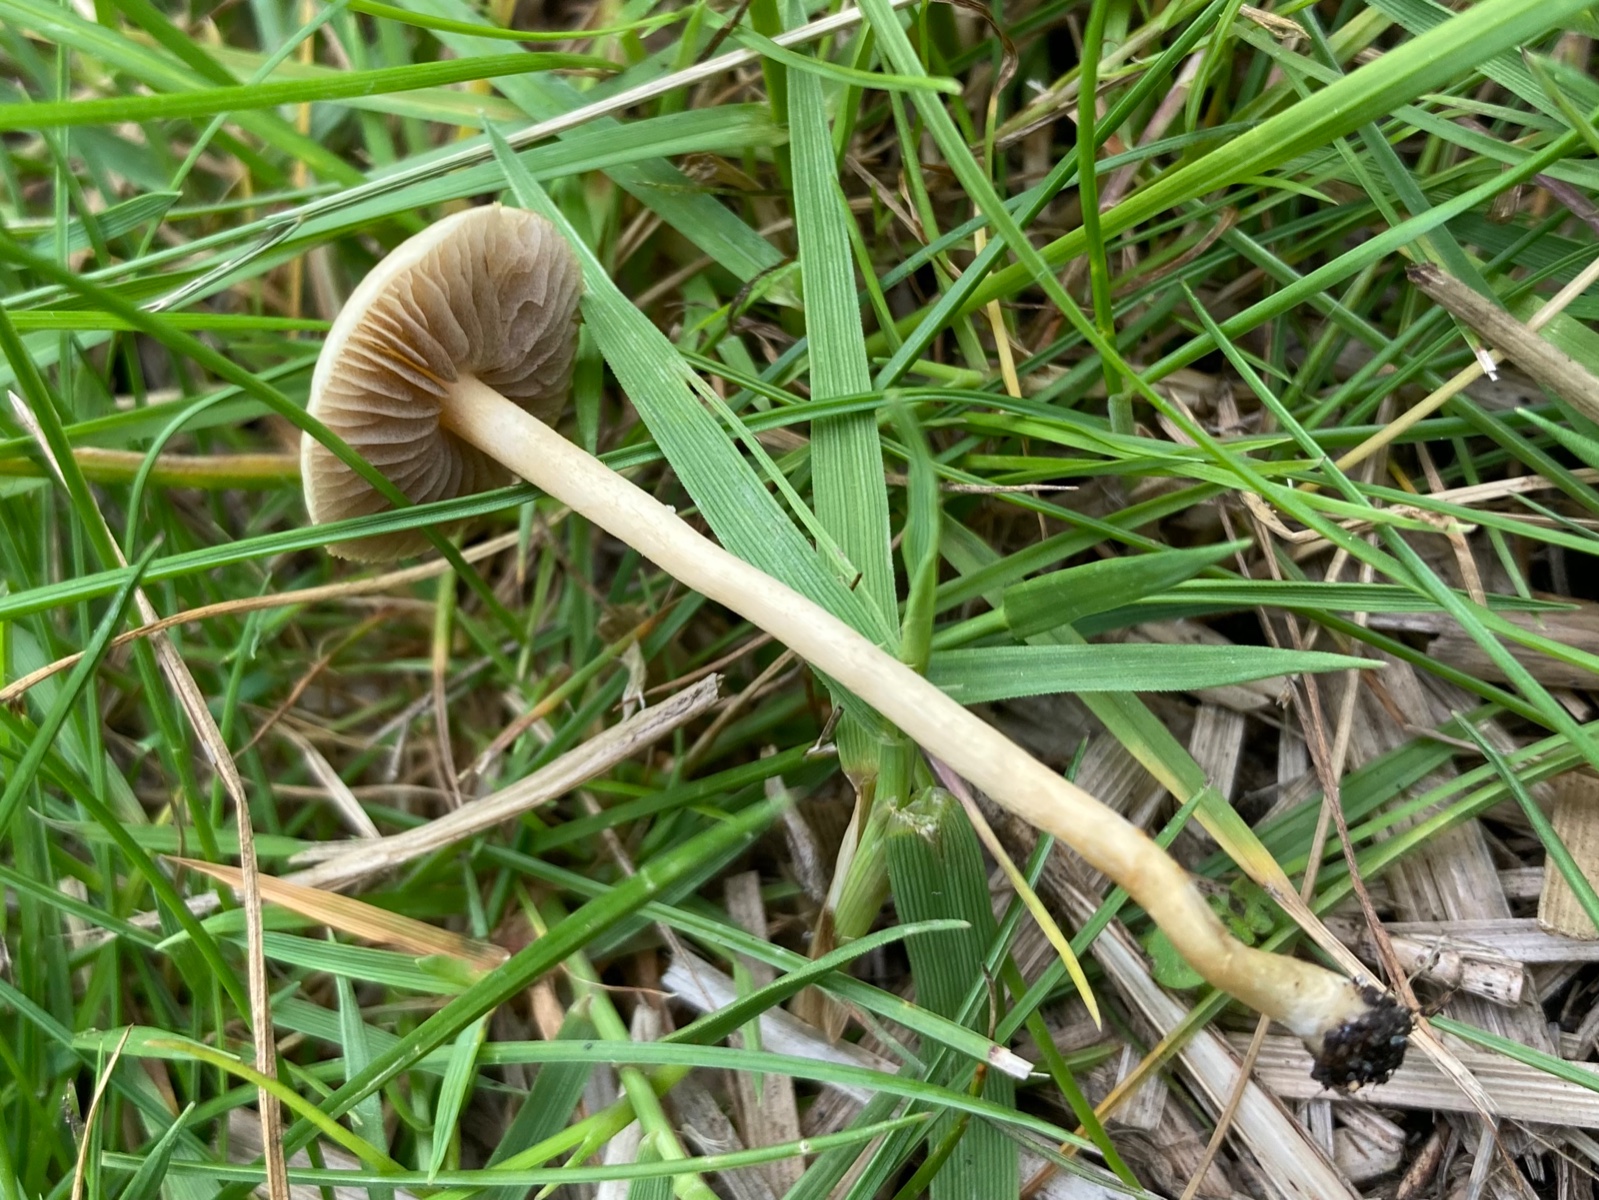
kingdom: Fungi
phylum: Basidiomycota
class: Agaricomycetes
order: Agaricales
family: Strophariaceae
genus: Agrocybe
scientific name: Agrocybe pediades
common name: almindelig agerhat
